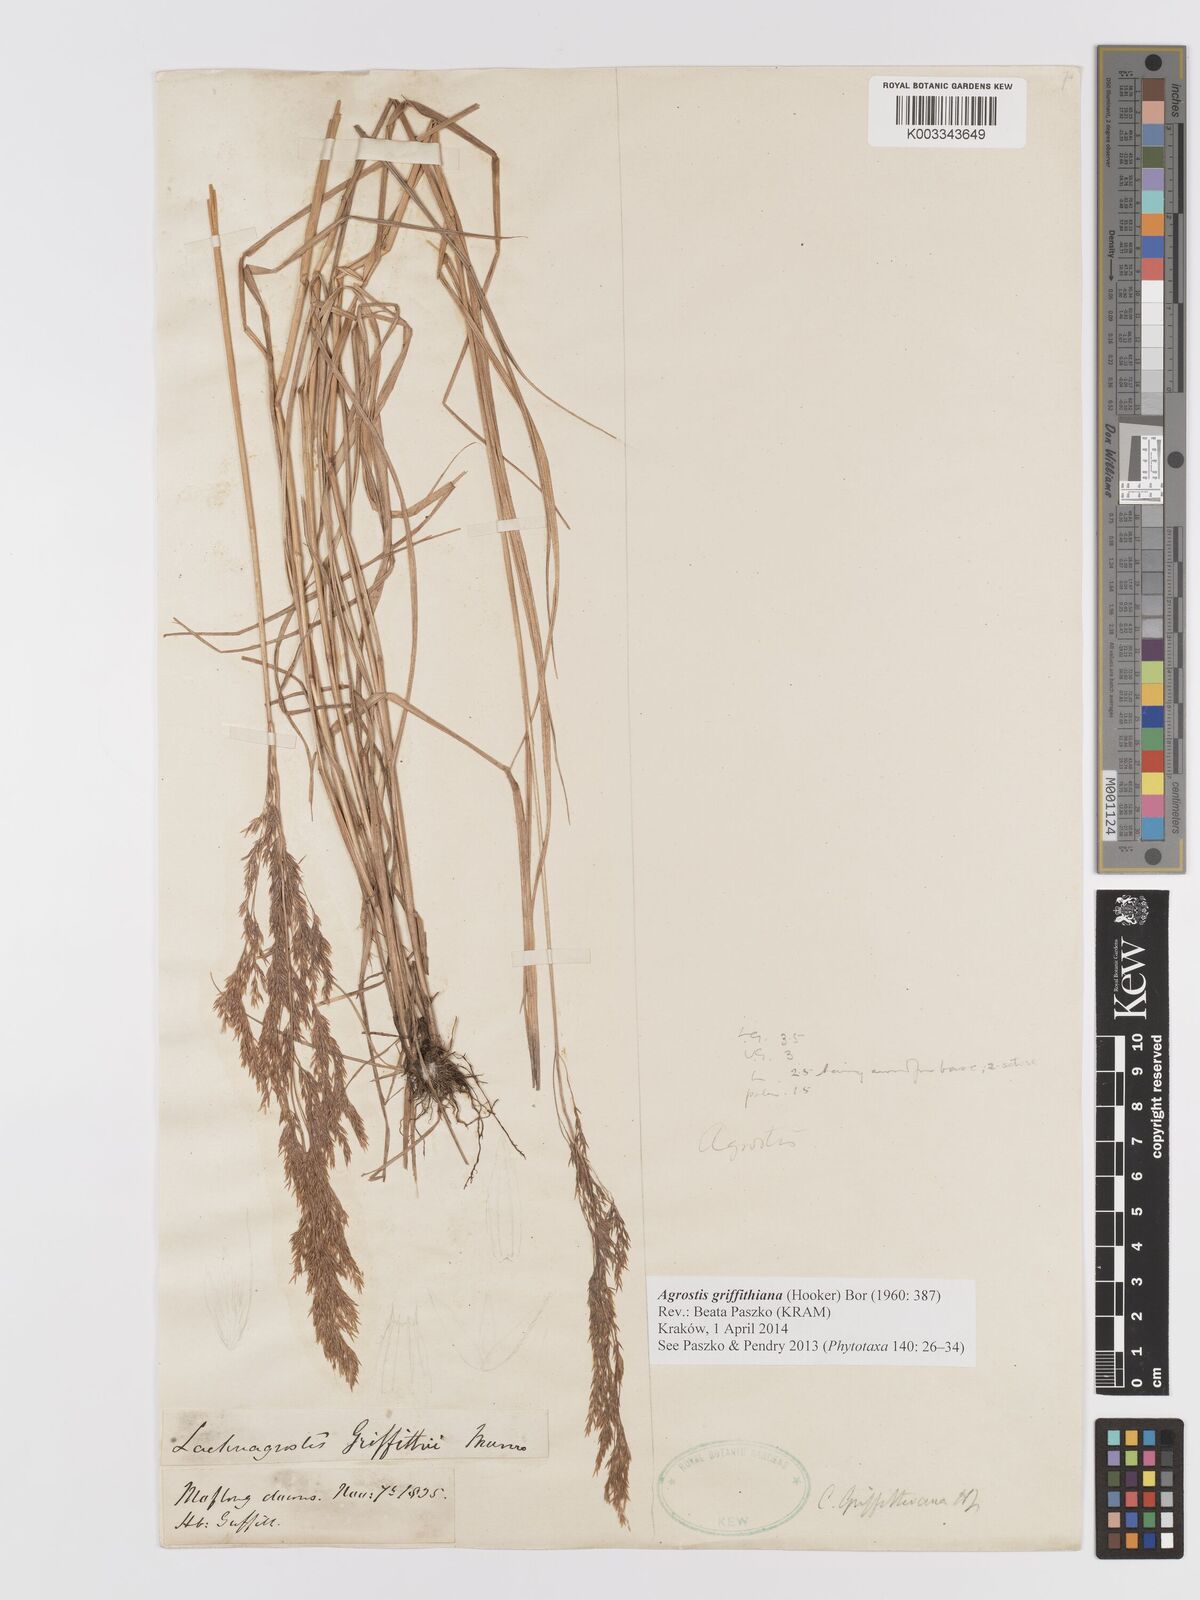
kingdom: Plantae
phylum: Tracheophyta
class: Liliopsida
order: Poales
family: Poaceae
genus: Agrostis
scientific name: Agrostis griffithiana
